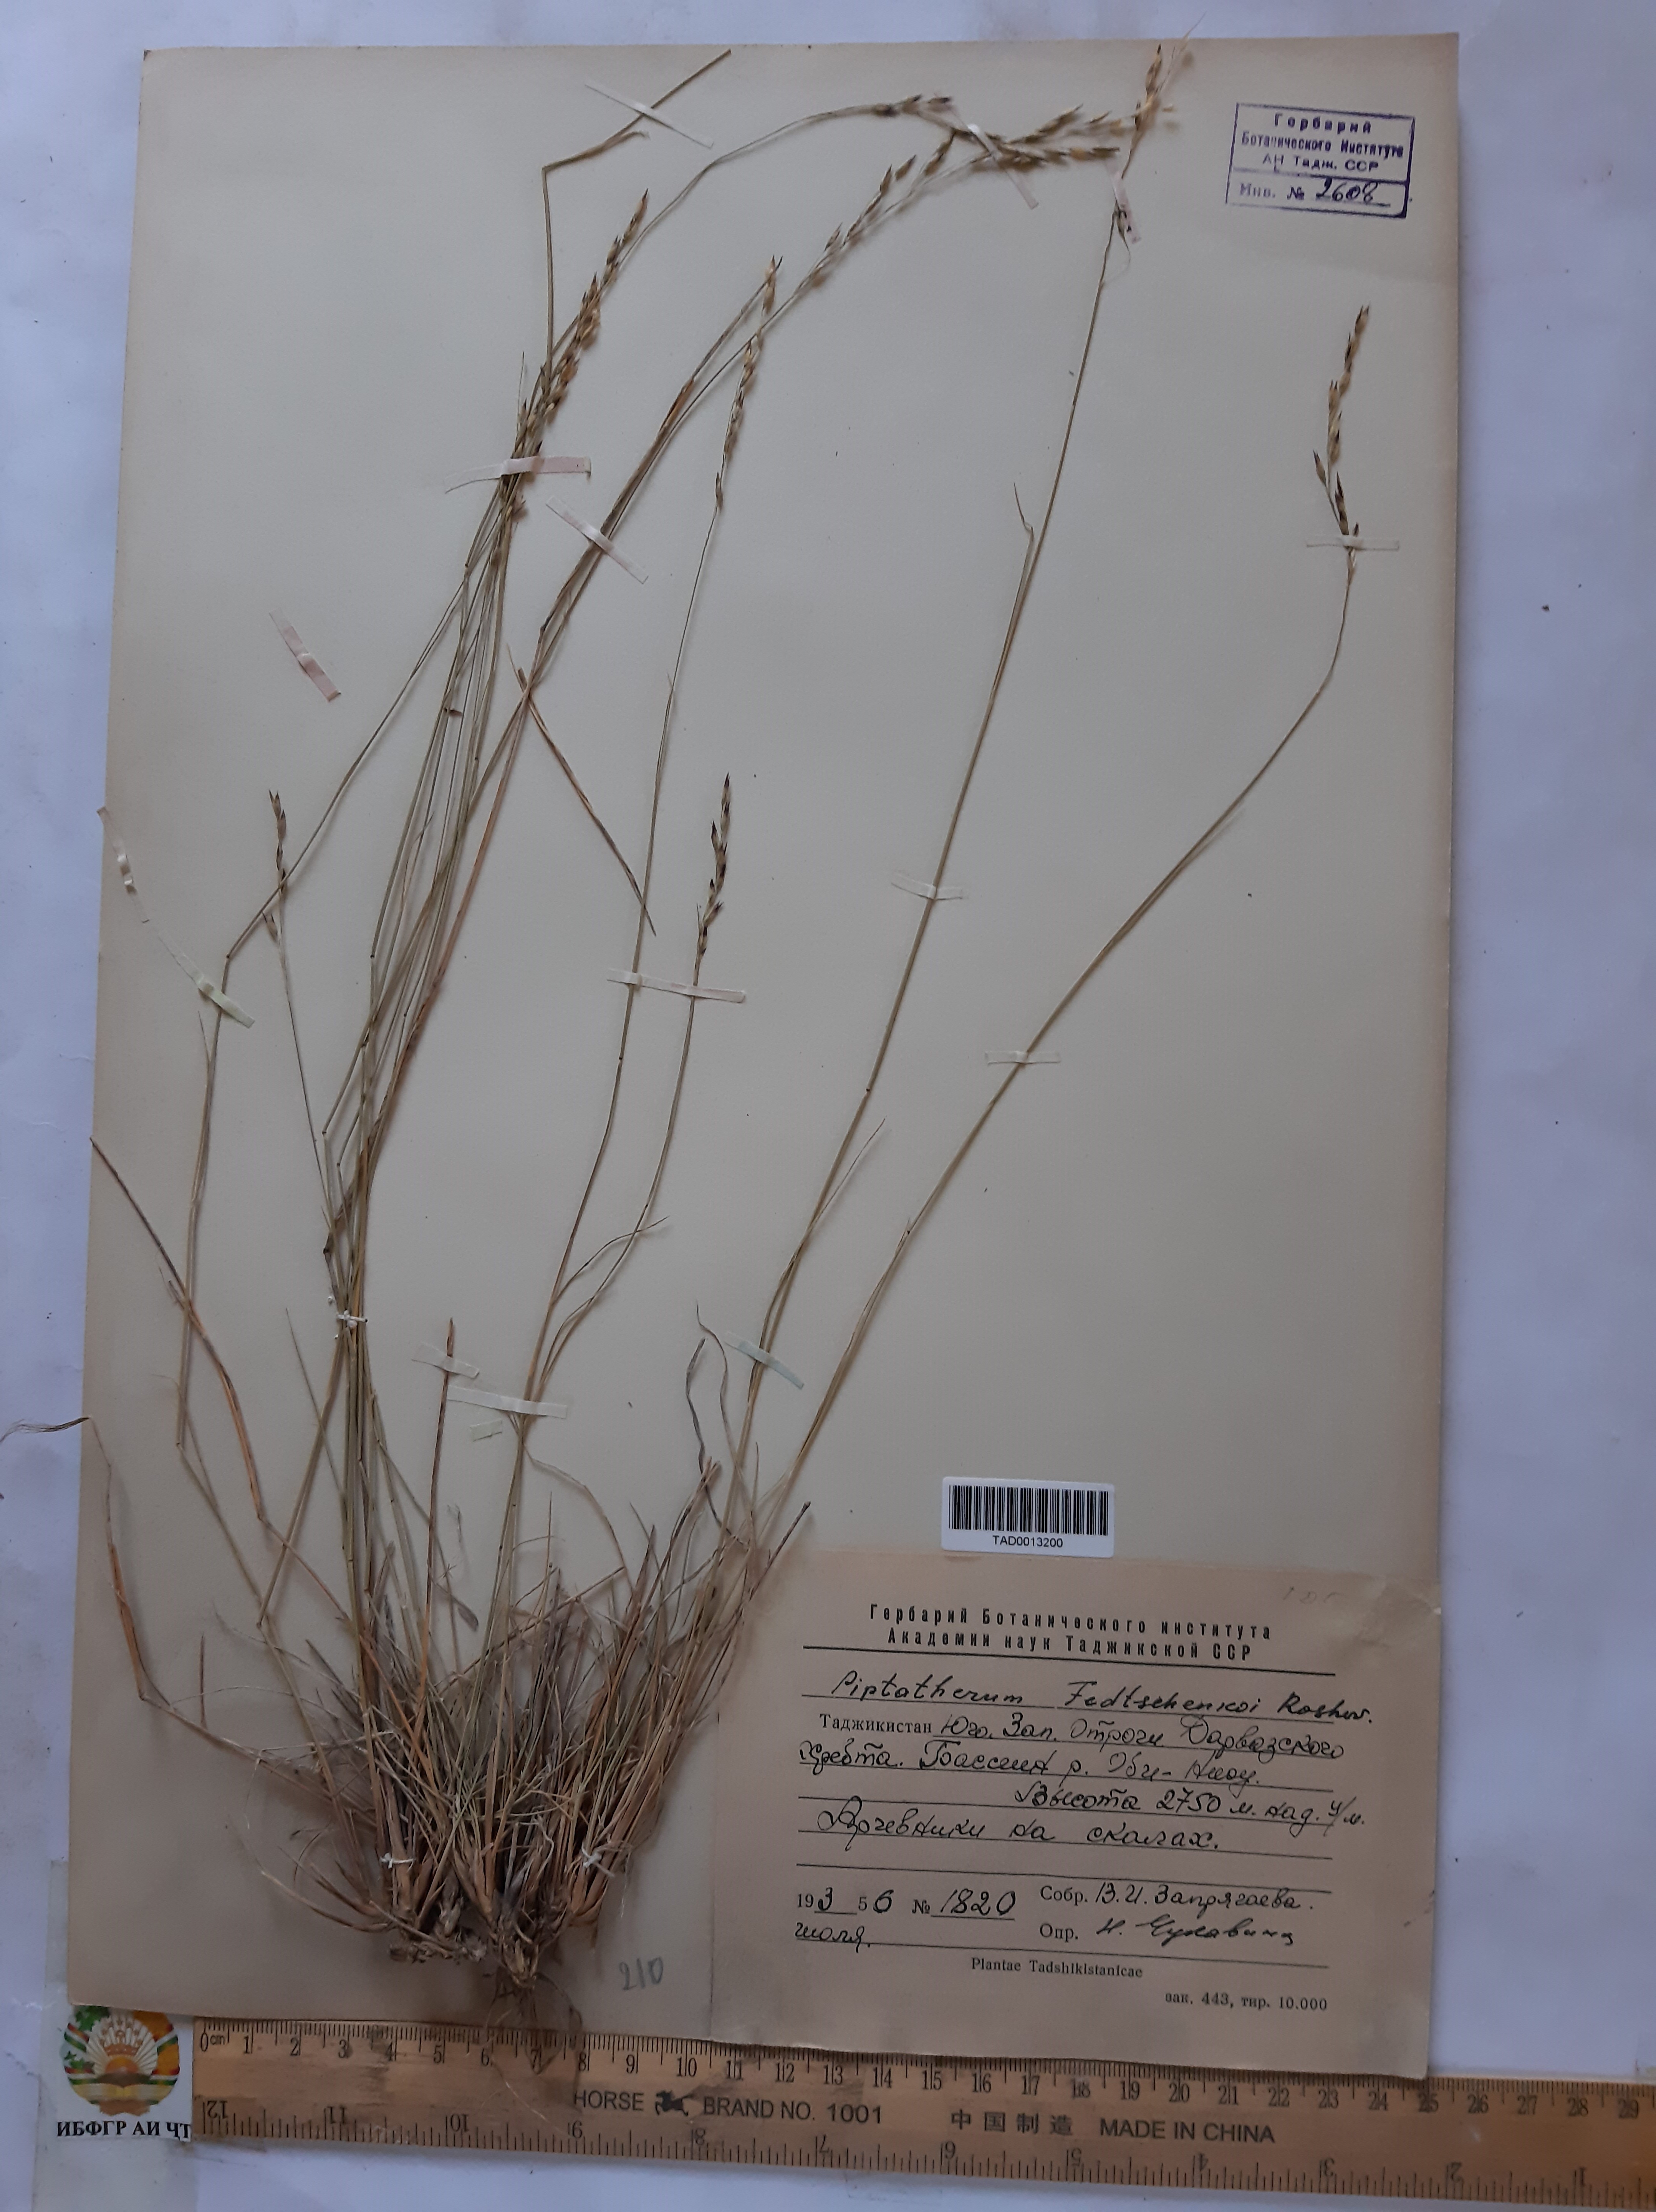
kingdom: Plantae
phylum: Tracheophyta
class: Liliopsida
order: Poales
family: Poaceae
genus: Piptatherum
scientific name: Piptatherum sogdianum
